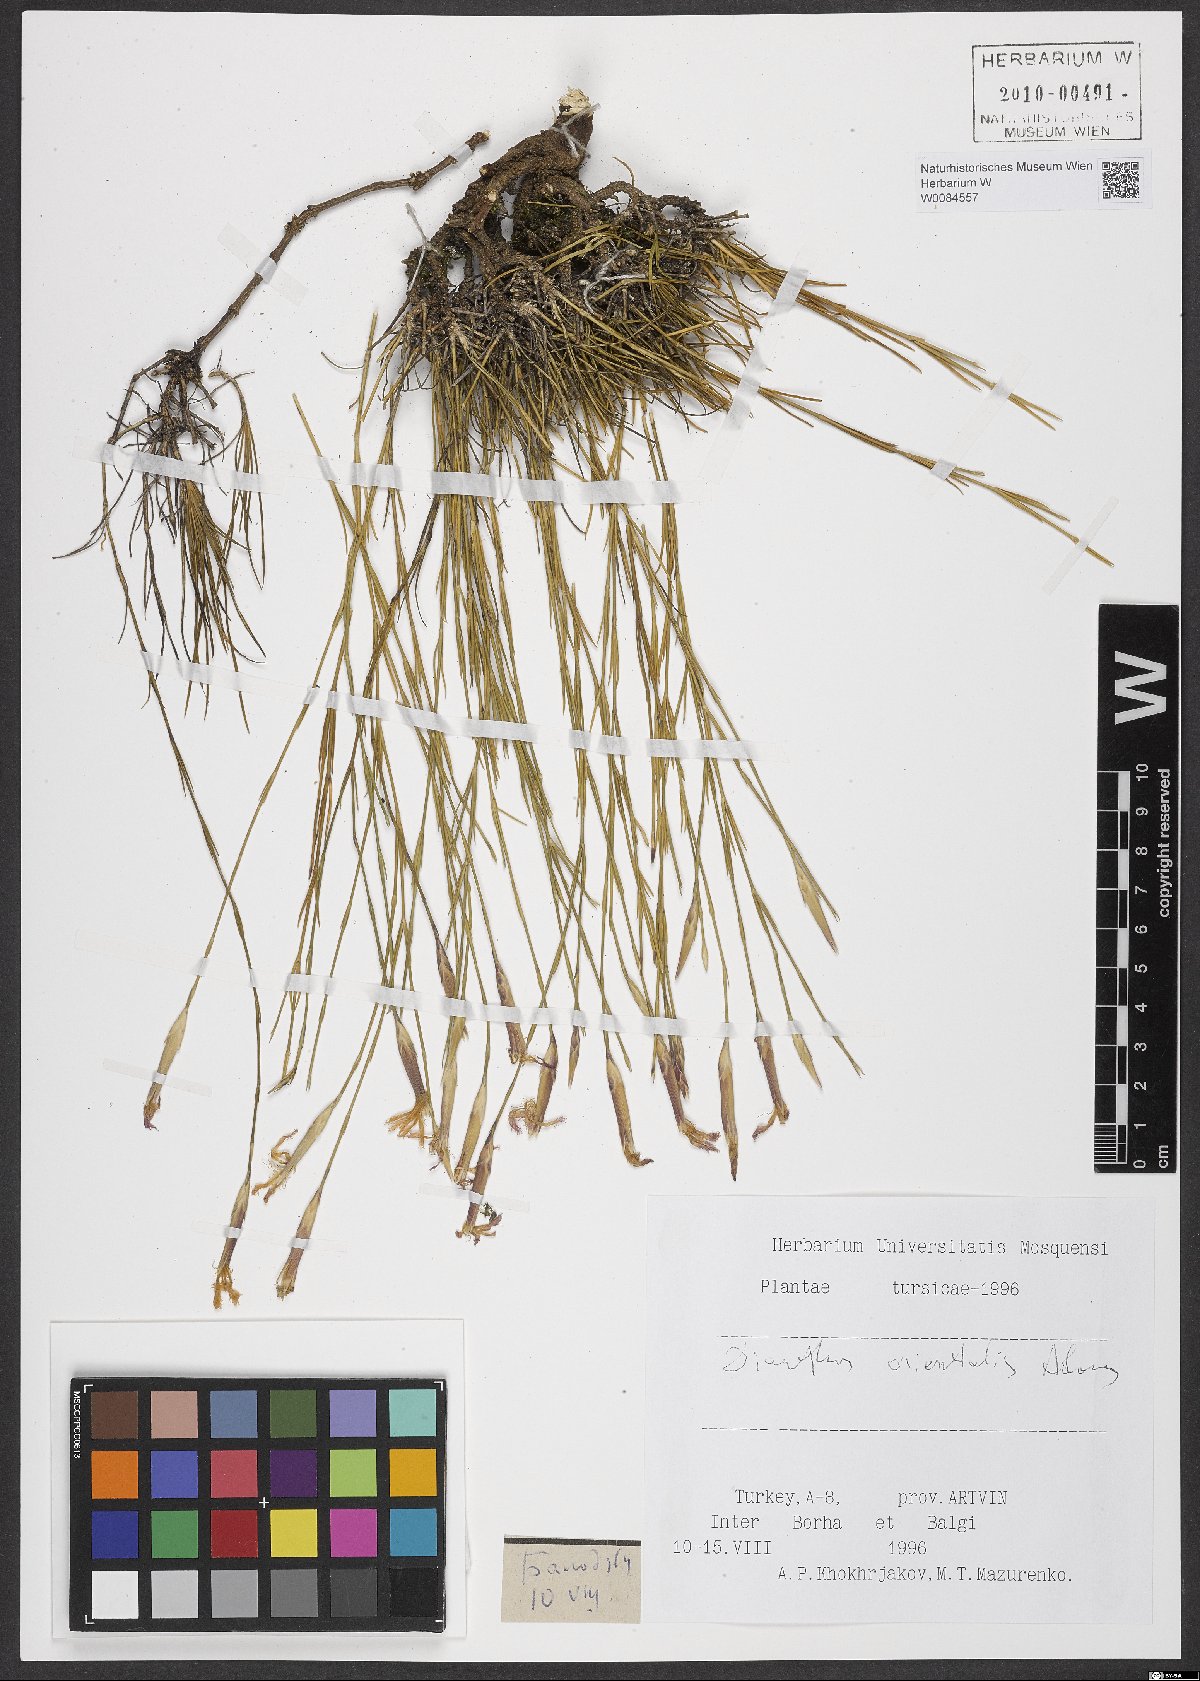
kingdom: Plantae
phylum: Tracheophyta
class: Magnoliopsida
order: Caryophyllales
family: Caryophyllaceae
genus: Dianthus
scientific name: Dianthus orientalis
